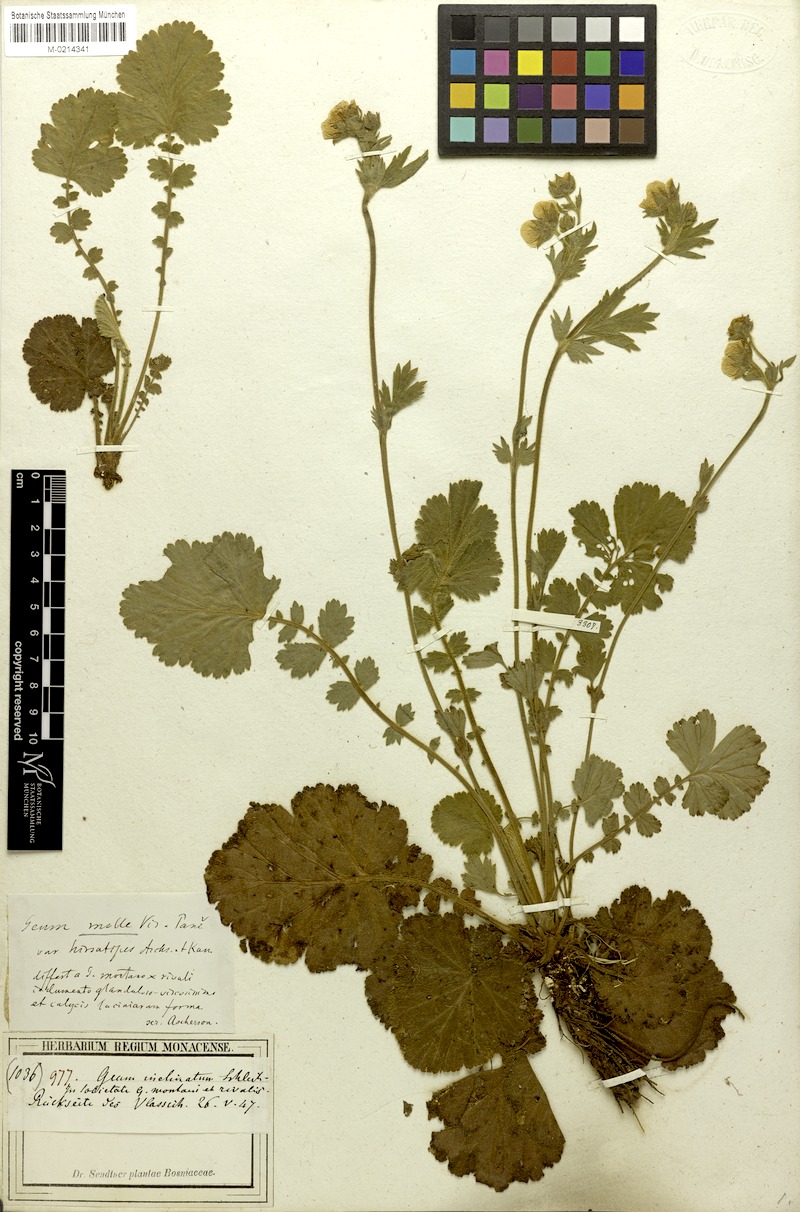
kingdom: Plantae
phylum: Tracheophyta
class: Magnoliopsida
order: Rosales
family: Rosaceae
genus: Geum
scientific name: Geum molle
